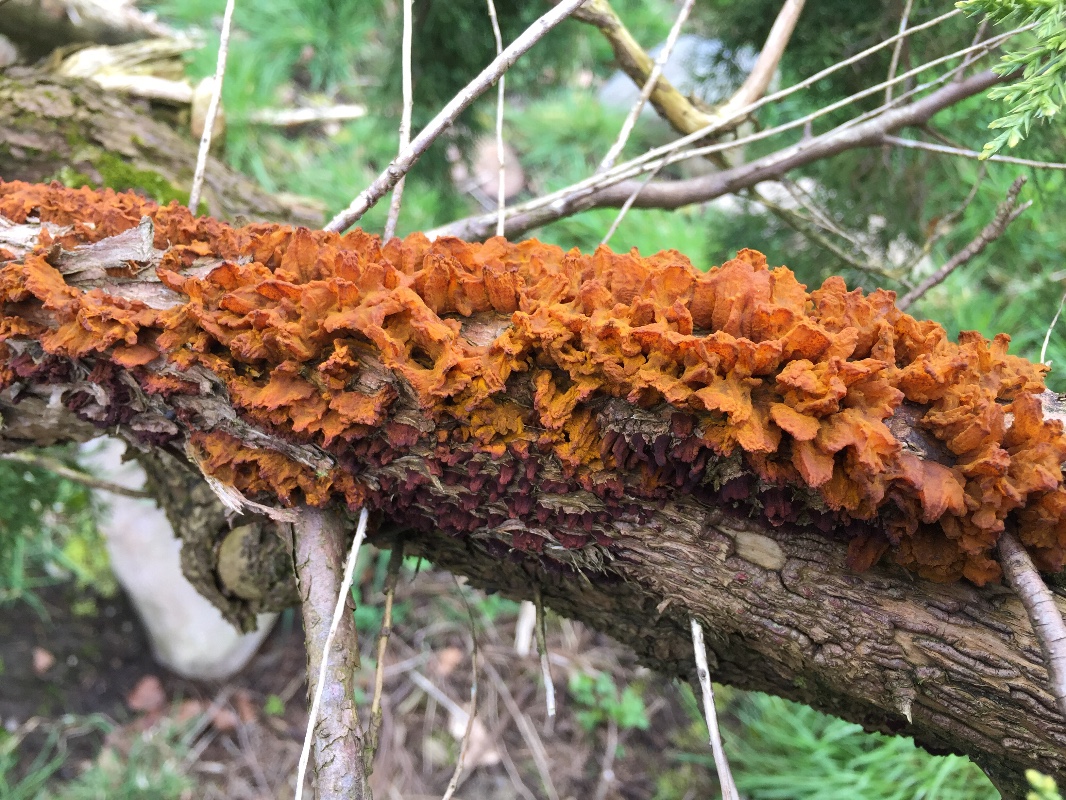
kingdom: Fungi
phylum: Basidiomycota
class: Pucciniomycetes
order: Pucciniales
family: Gymnosporangiaceae
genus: Gymnosporangium
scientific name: Gymnosporangium sabinae
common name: pæregitter-bævrerust
